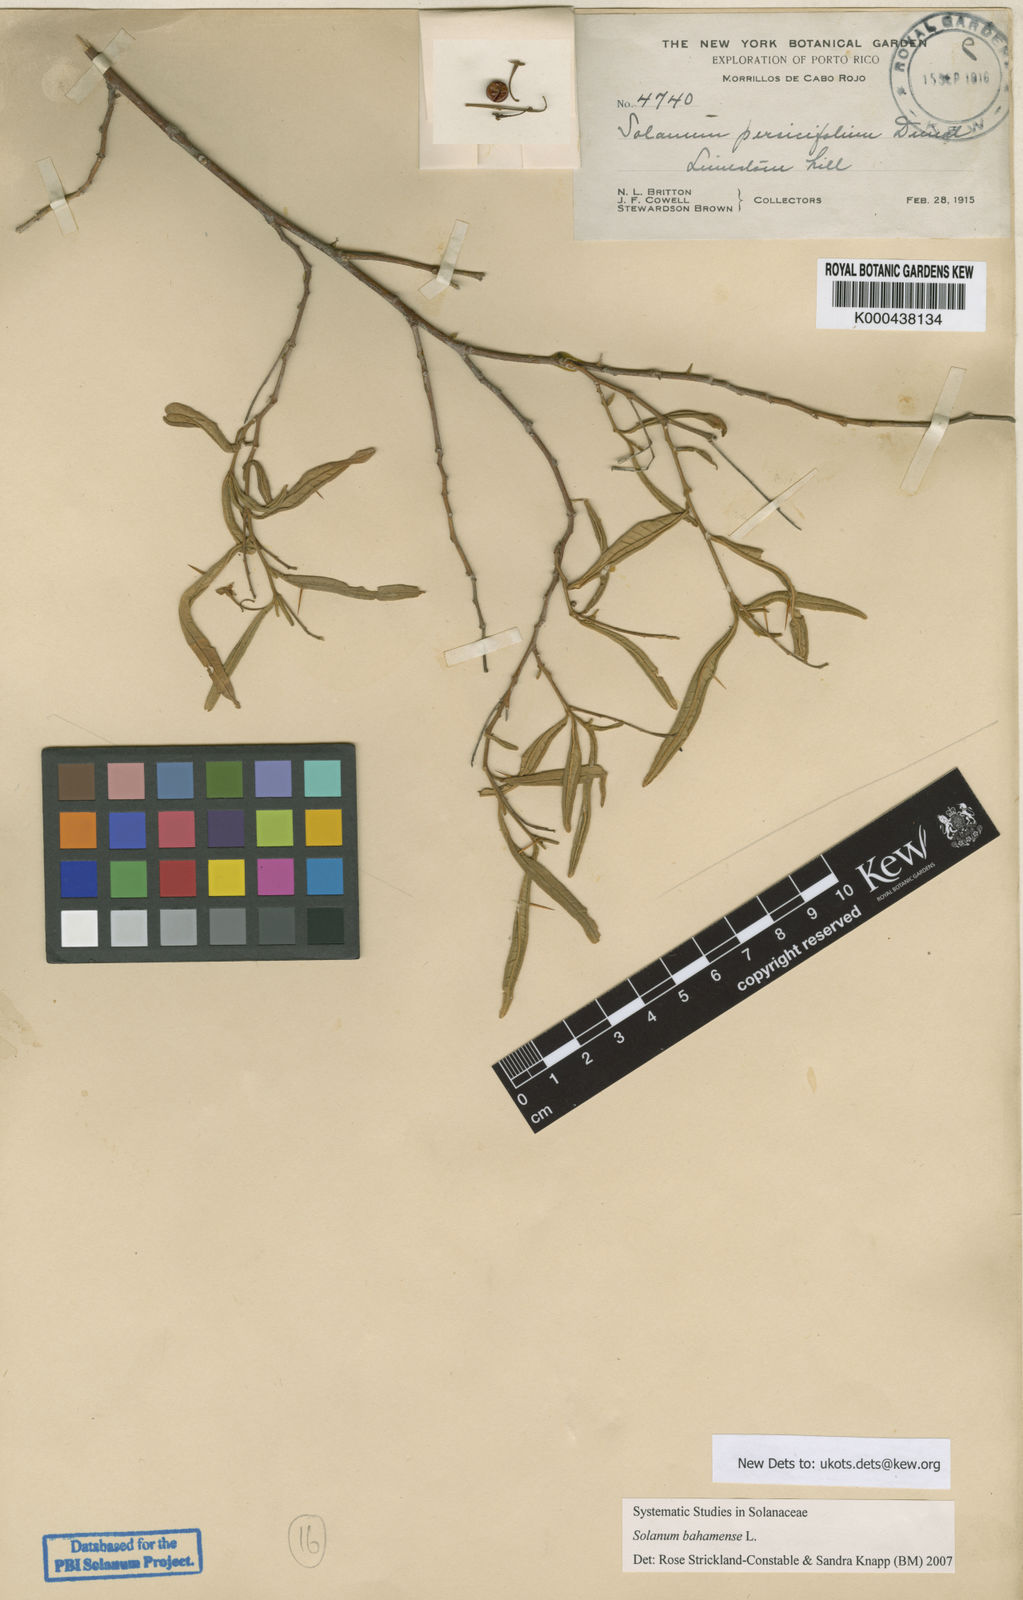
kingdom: Plantae
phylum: Tracheophyta
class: Magnoliopsida
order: Solanales
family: Solanaceae
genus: Solanum
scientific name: Solanum bahamense
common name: Canker-berry
